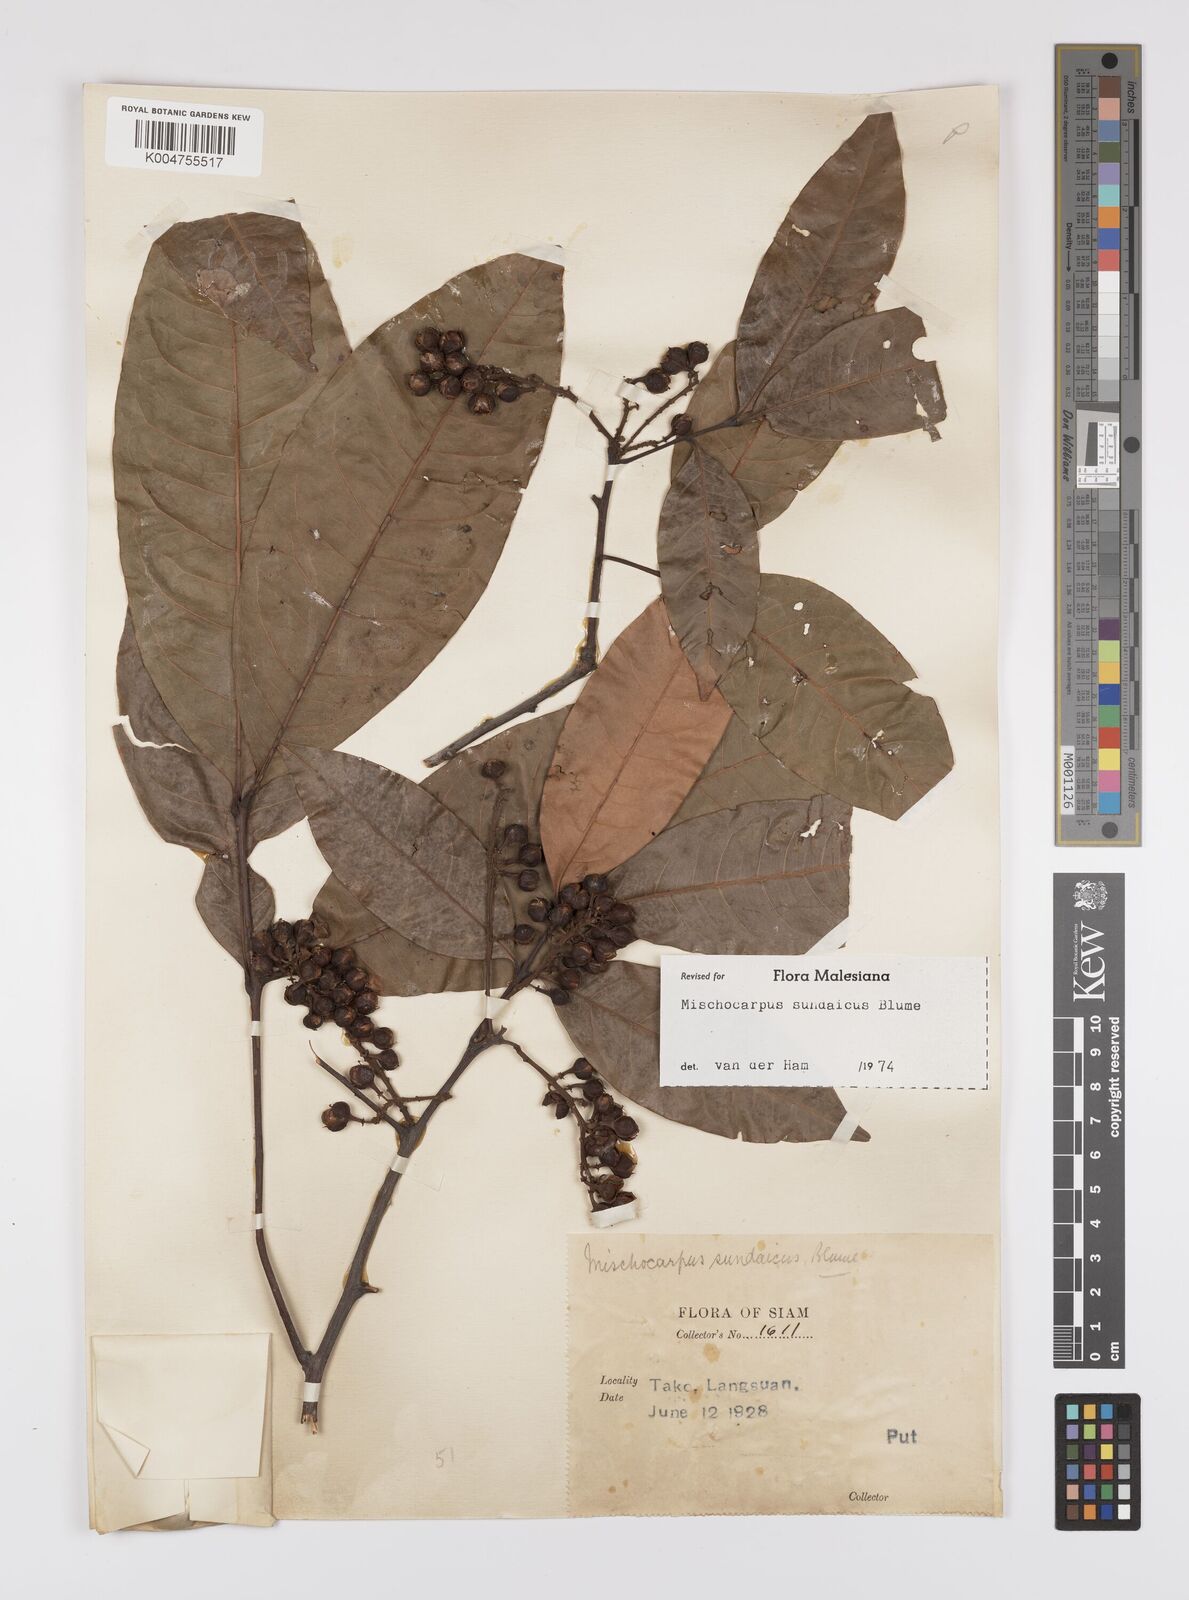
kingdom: Plantae
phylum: Tracheophyta
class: Magnoliopsida
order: Sapindales
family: Sapindaceae
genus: Mischocarpus
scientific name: Mischocarpus sundaicus
